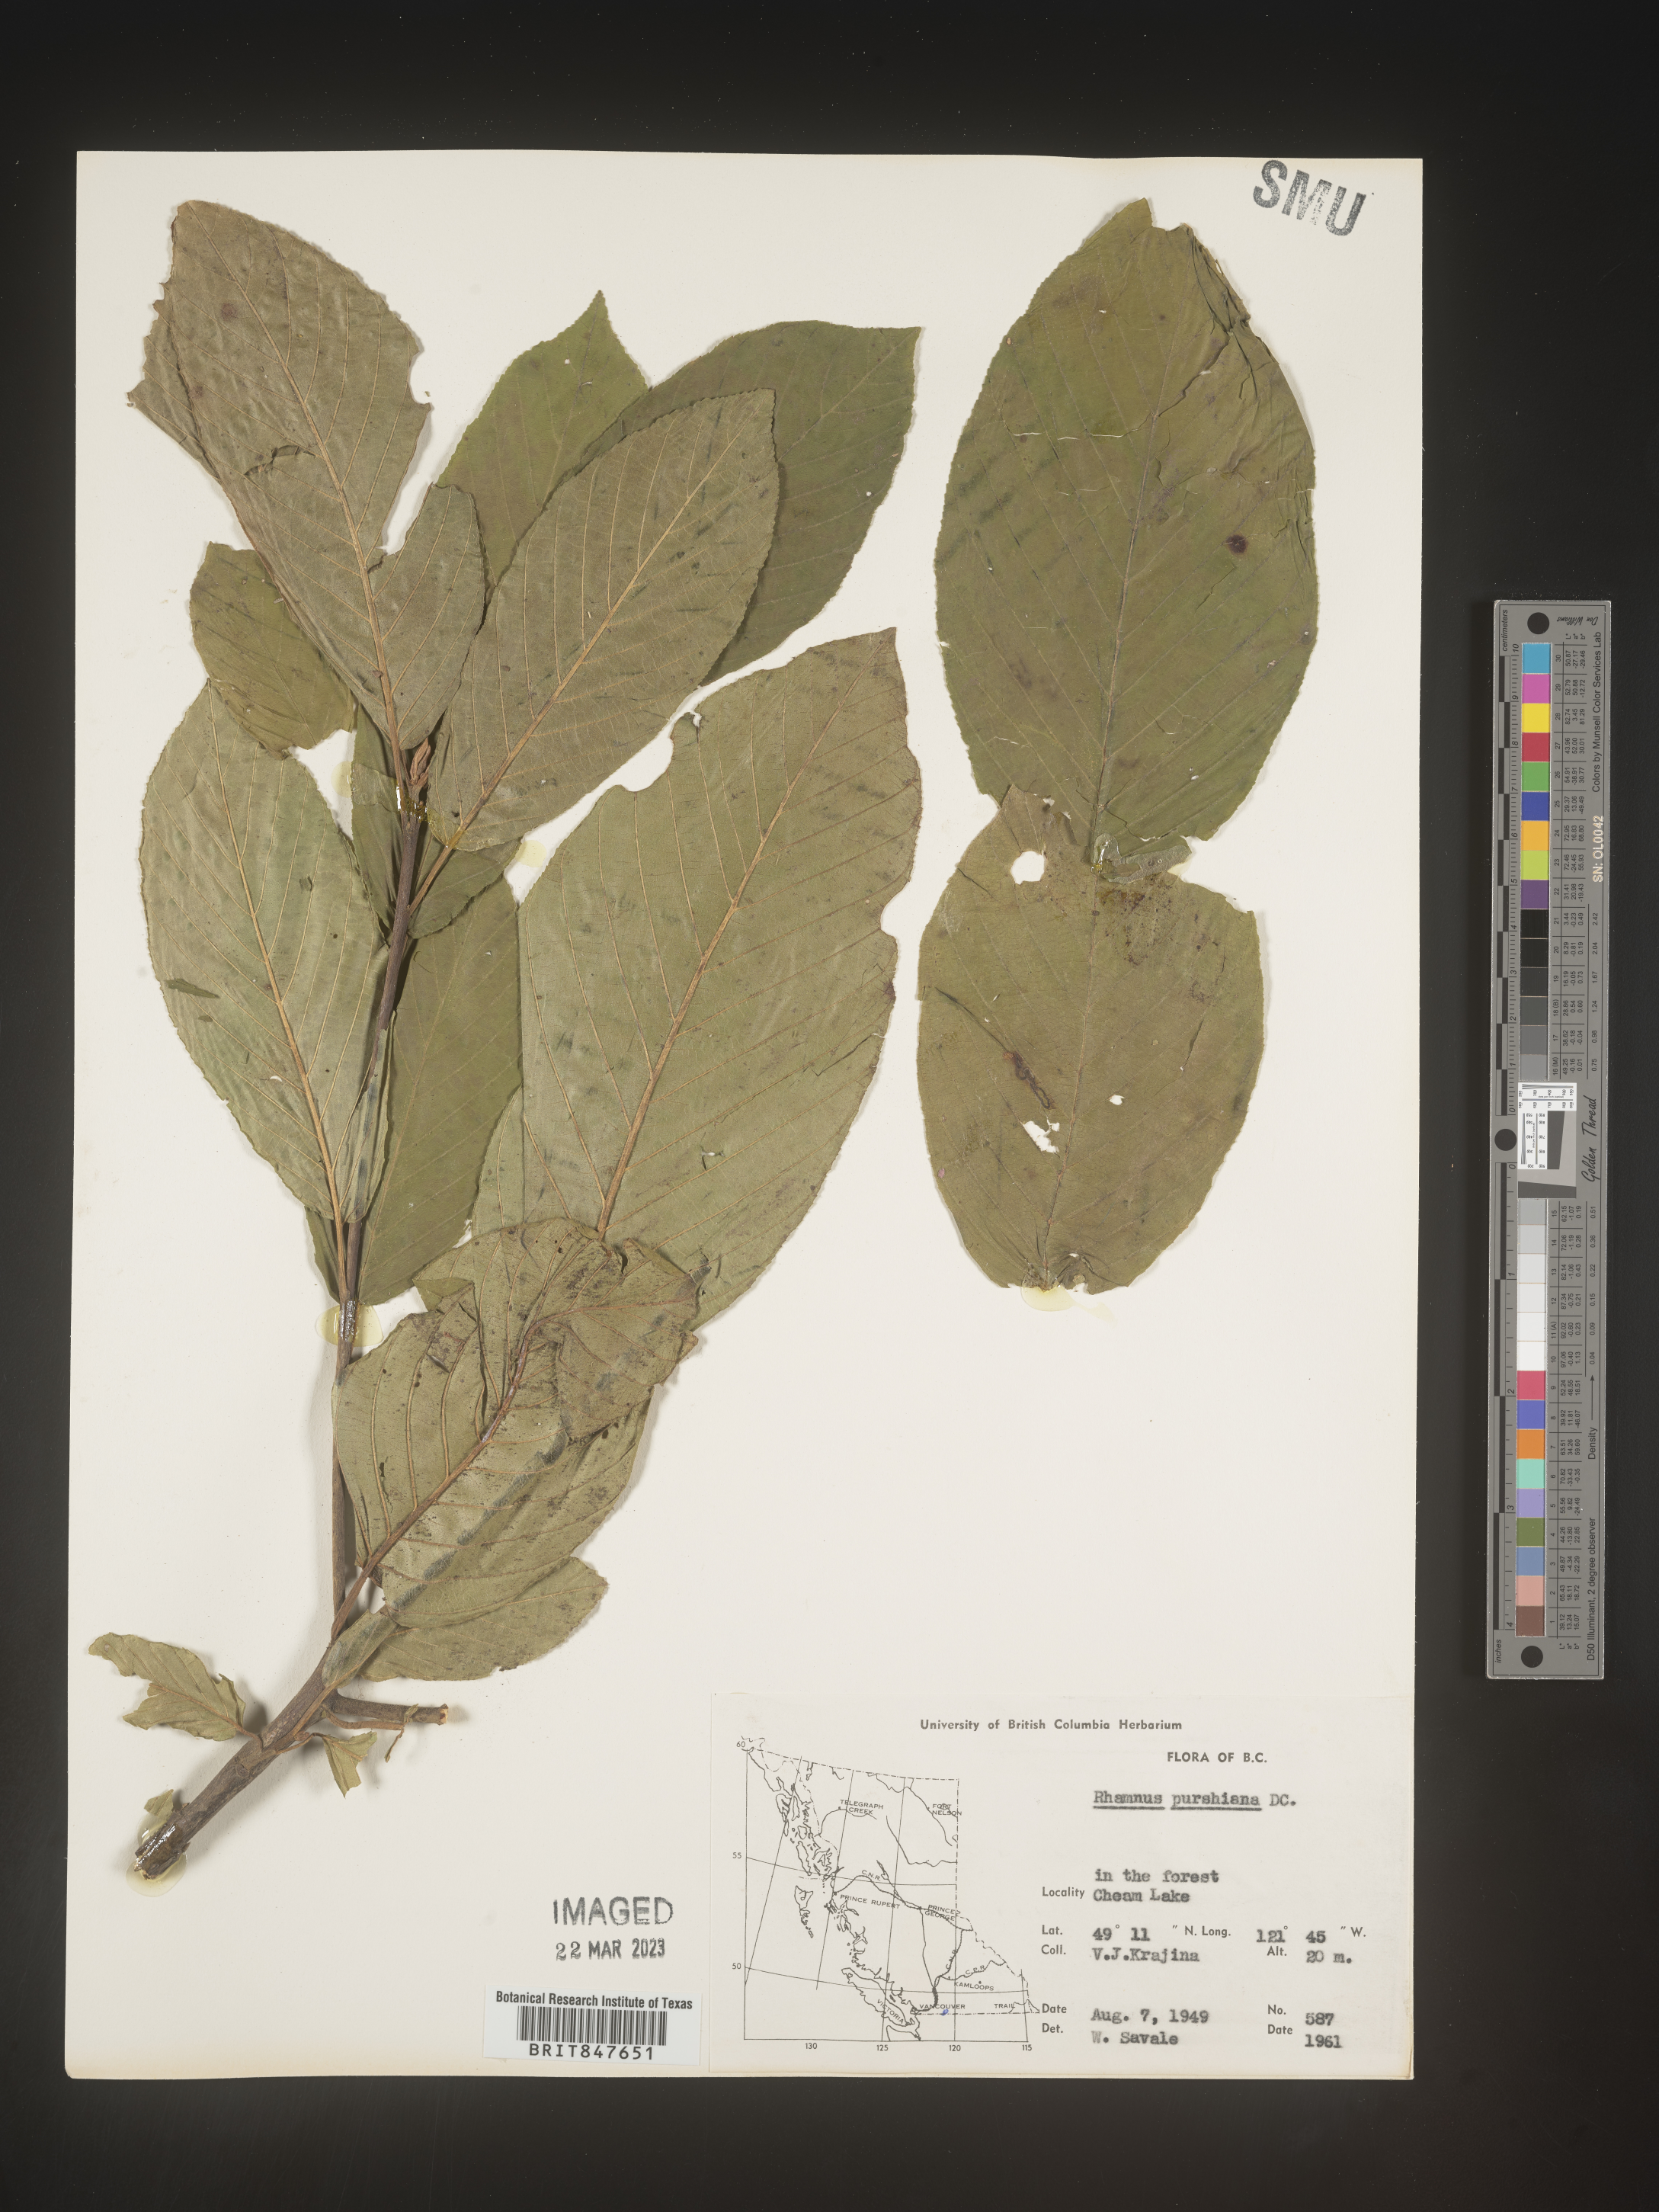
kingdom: Plantae
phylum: Tracheophyta
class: Magnoliopsida
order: Rosales
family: Rhamnaceae
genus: Frangula
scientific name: Frangula purshiana
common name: Cascara buckthorn
